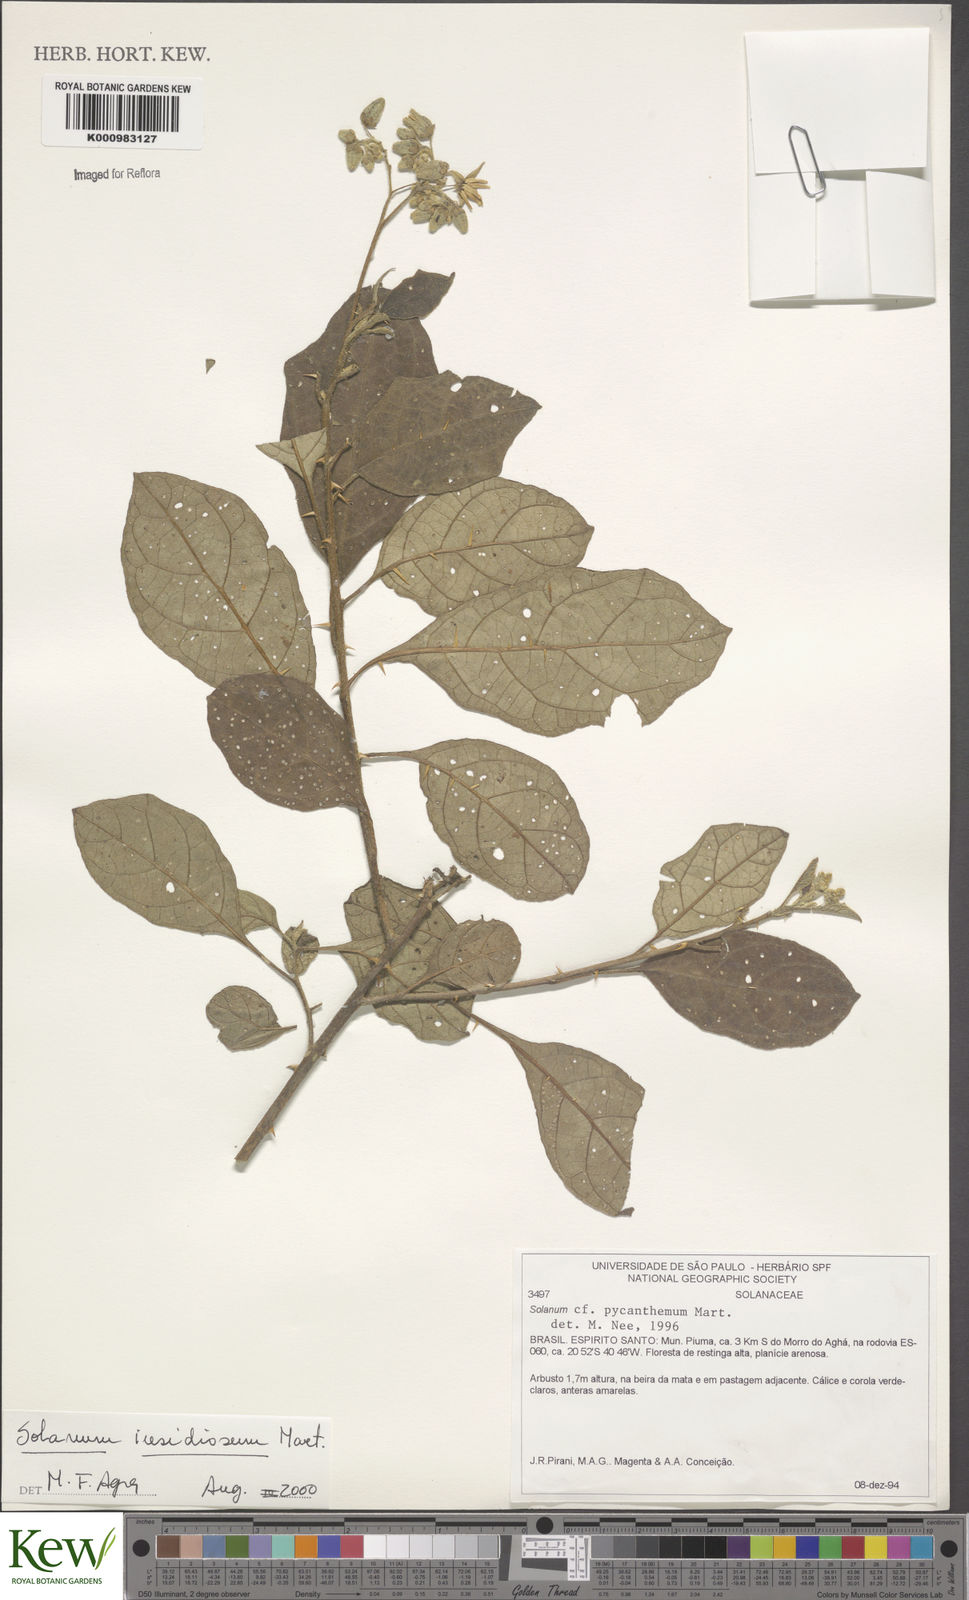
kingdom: Plantae
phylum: Tracheophyta
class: Magnoliopsida
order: Solanales
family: Solanaceae
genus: Solanum
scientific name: Solanum insidiosum
